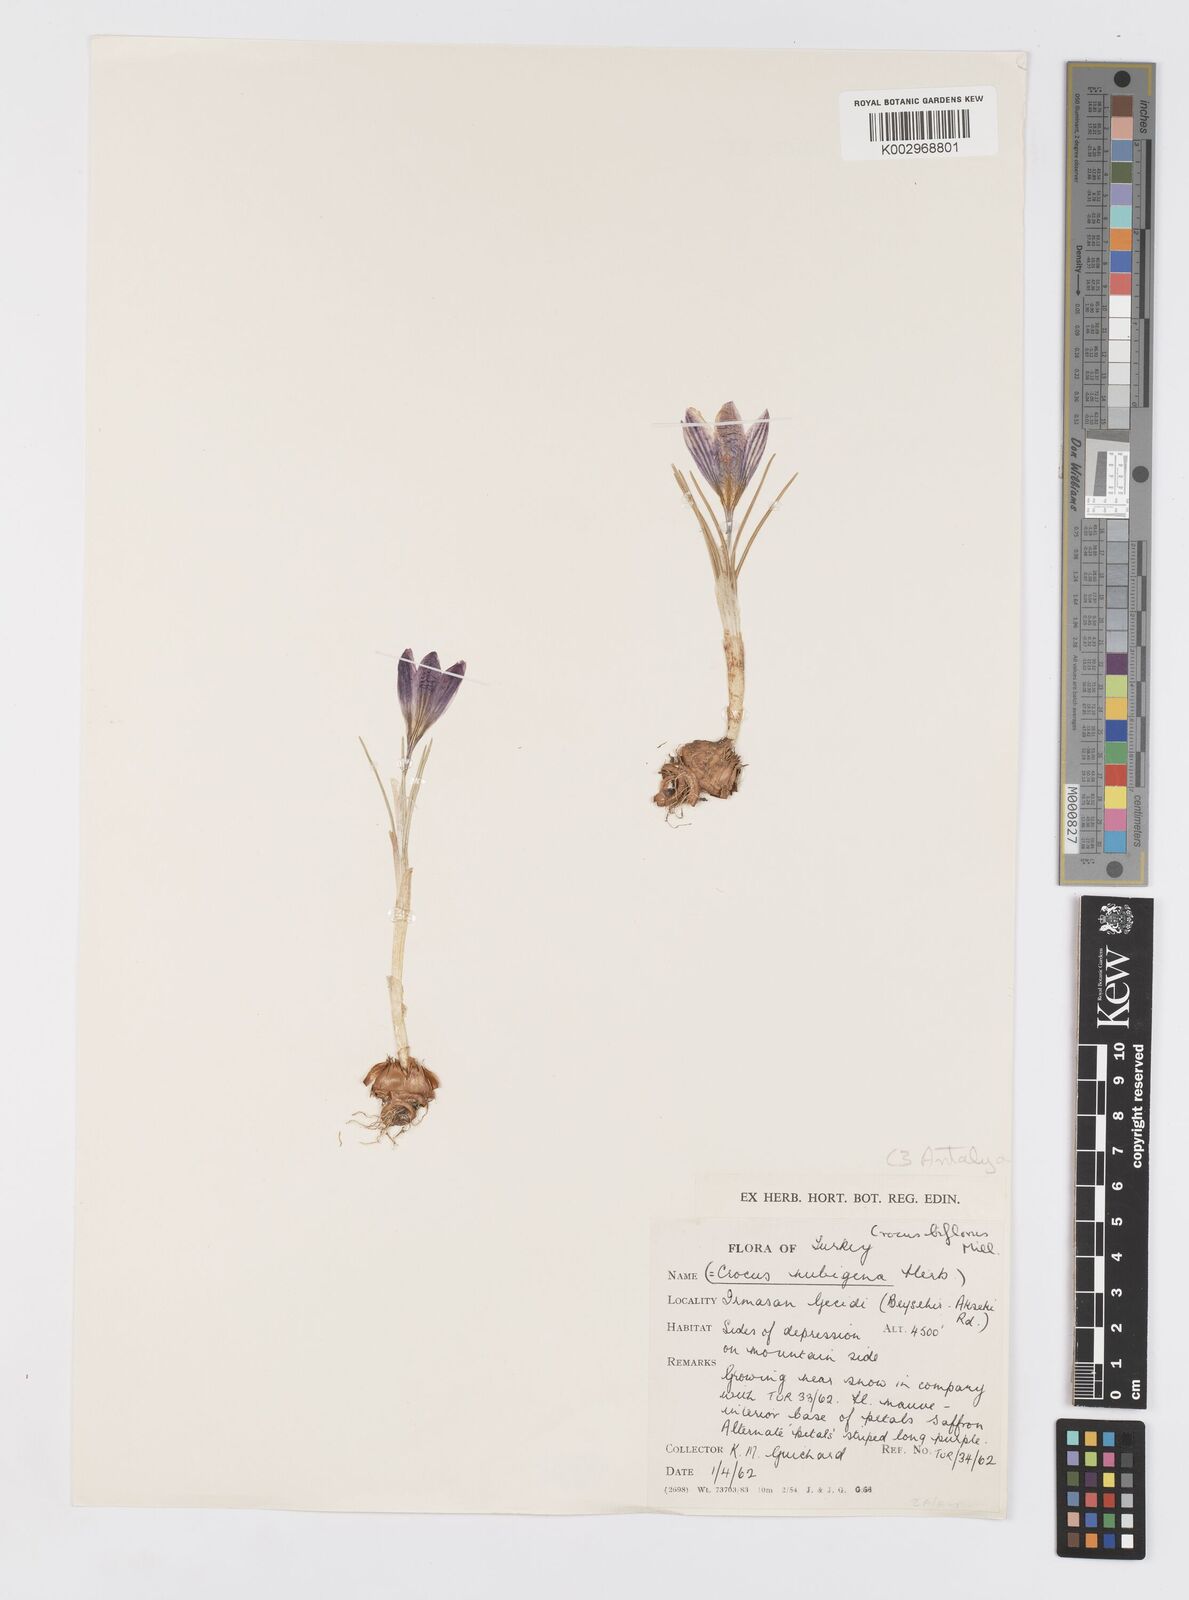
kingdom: Plantae
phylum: Tracheophyta
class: Liliopsida
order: Asparagales
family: Iridaceae
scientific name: Iridaceae
